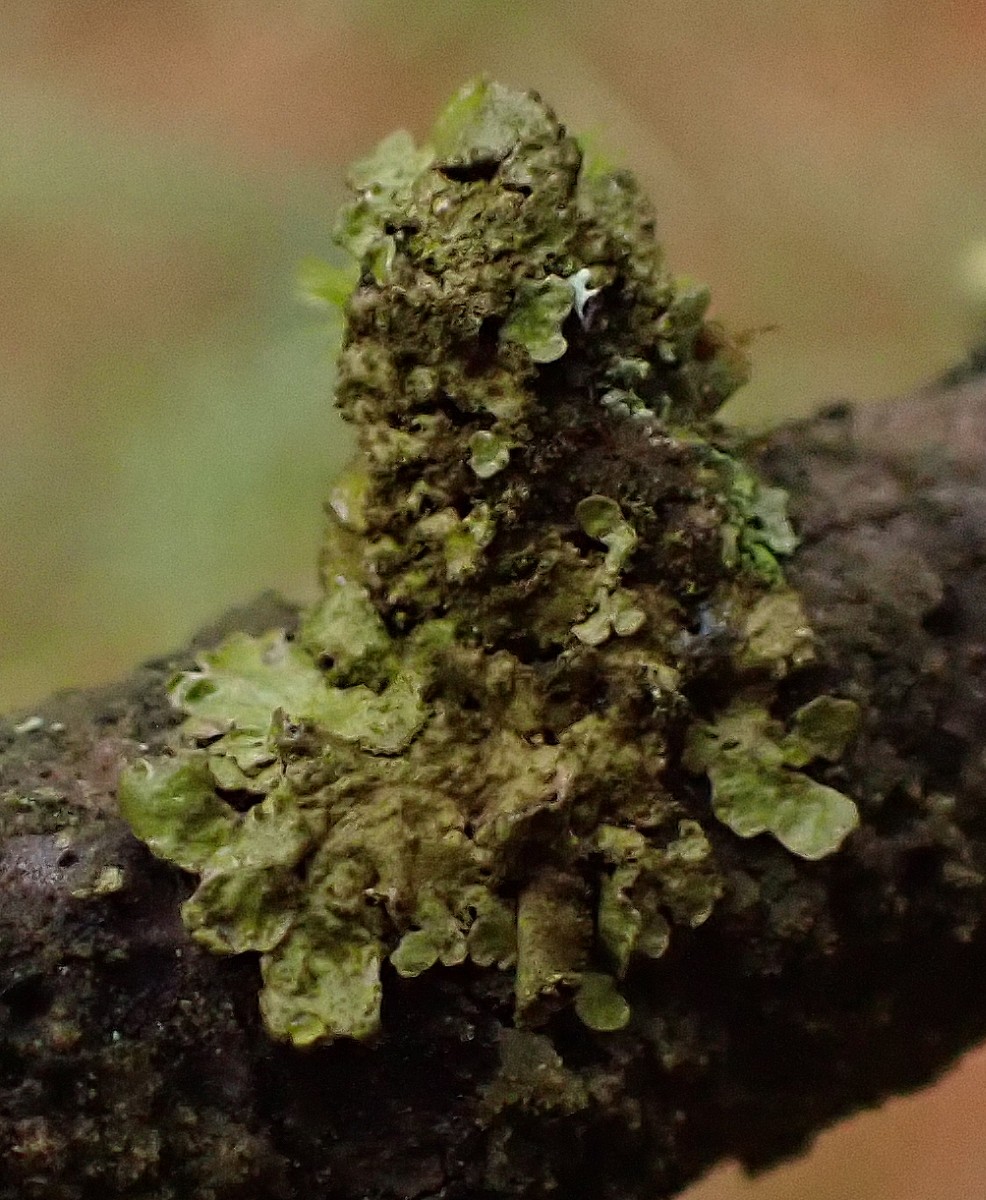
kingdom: Fungi
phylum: Ascomycota
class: Lecanoromycetes
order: Lecanorales
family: Parmeliaceae
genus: Melanelixia
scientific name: Melanelixia subaurifera
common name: guldpudret skållav
